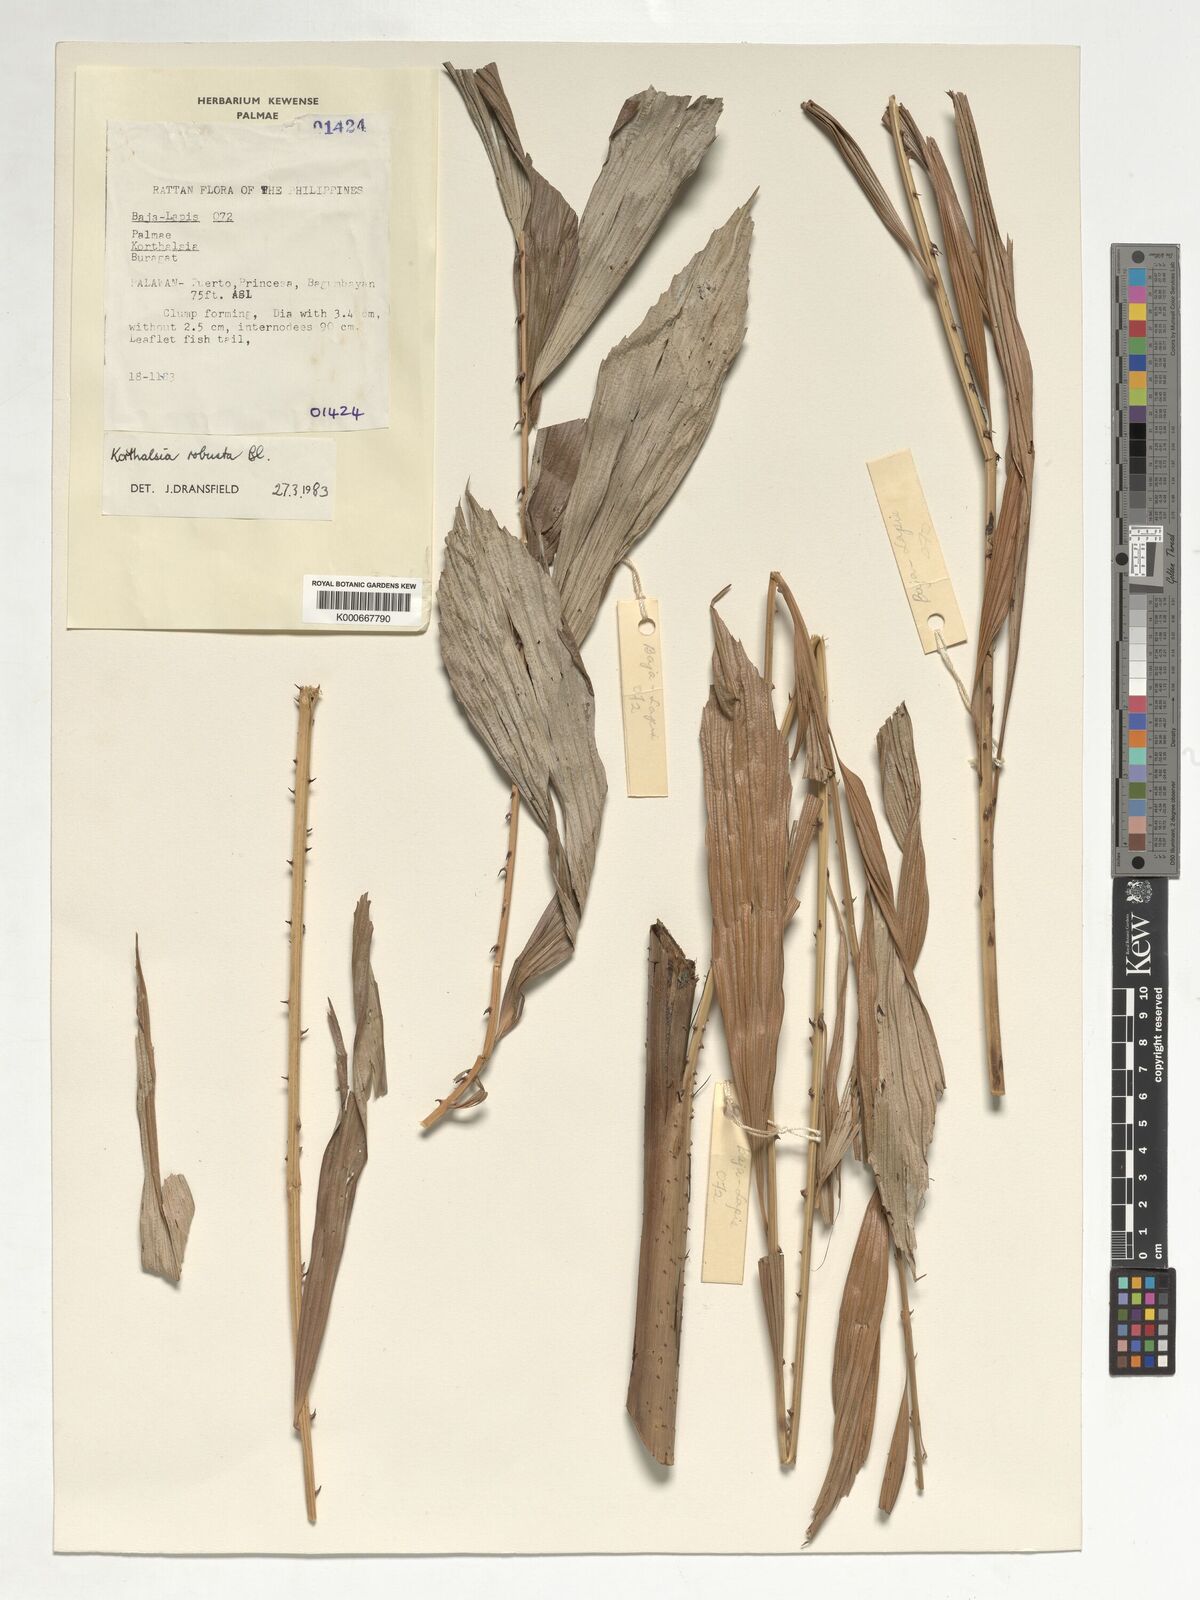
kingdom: Plantae
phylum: Tracheophyta
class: Liliopsida
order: Arecales
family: Arecaceae
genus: Korthalsia
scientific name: Korthalsia robusta
